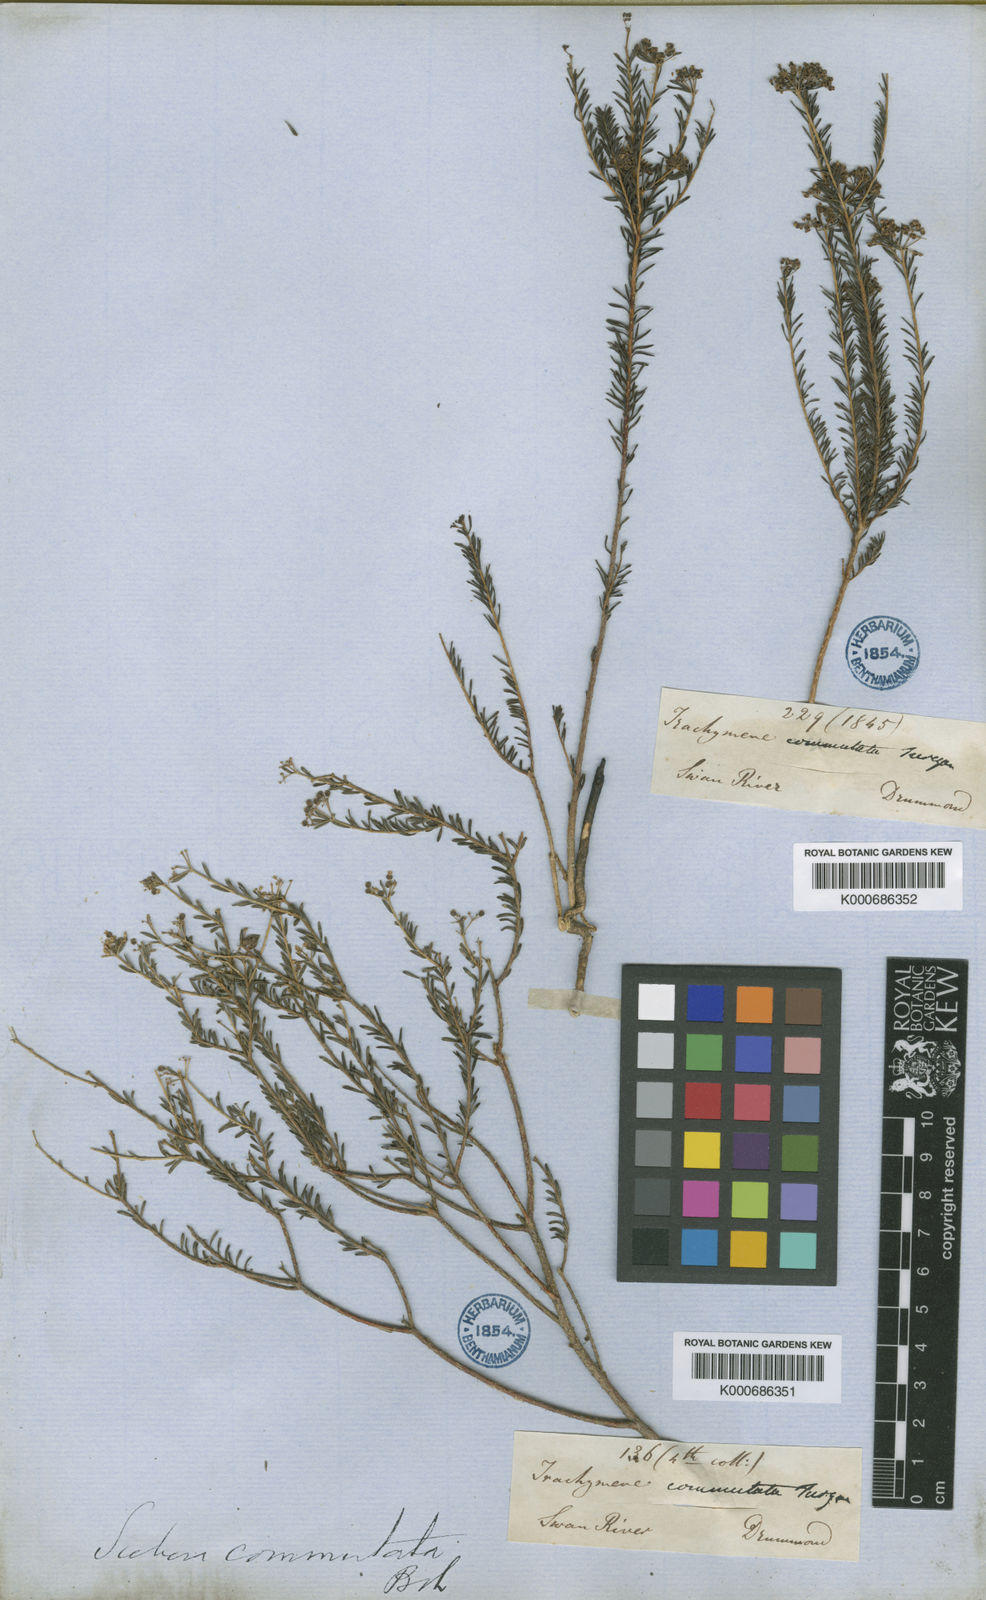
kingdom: Plantae
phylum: Tracheophyta
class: Magnoliopsida
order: Apiales
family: Apiaceae
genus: Platysace
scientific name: Platysace commutata
